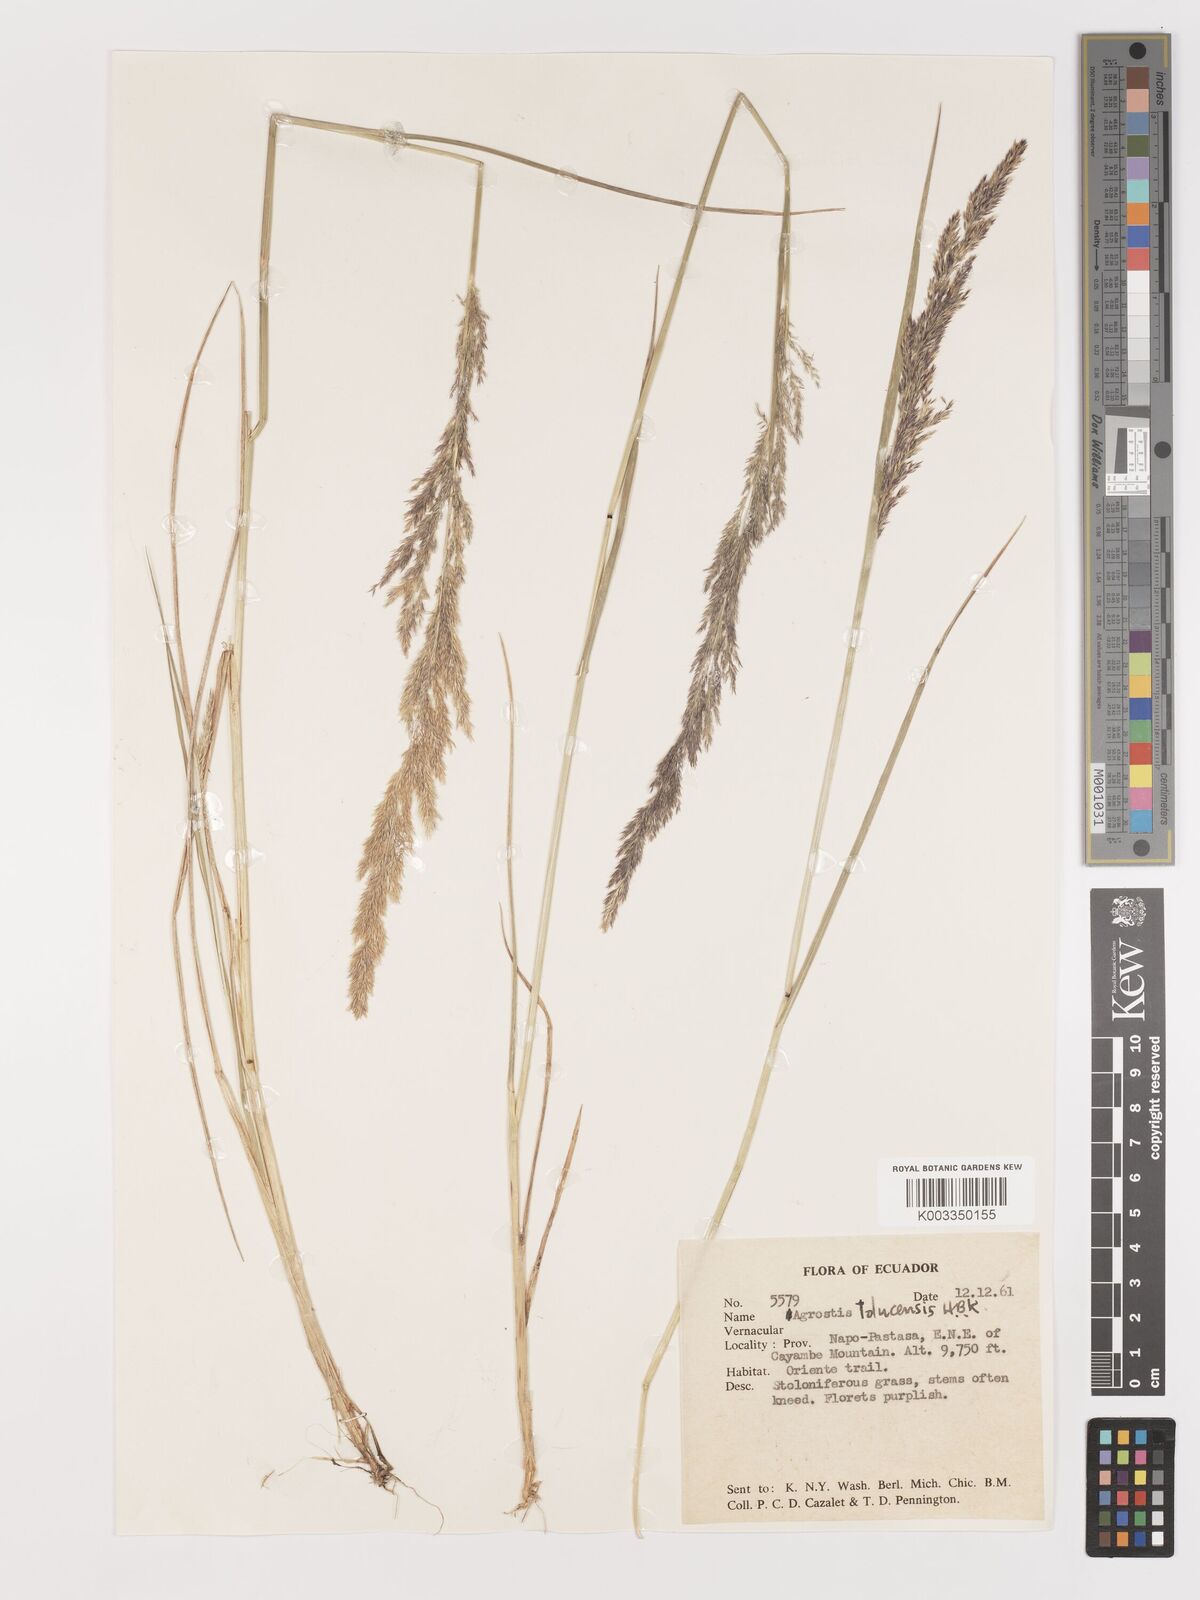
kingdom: Plantae
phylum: Tracheophyta
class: Liliopsida
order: Poales
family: Poaceae
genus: Agrostis
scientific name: Agrostis
